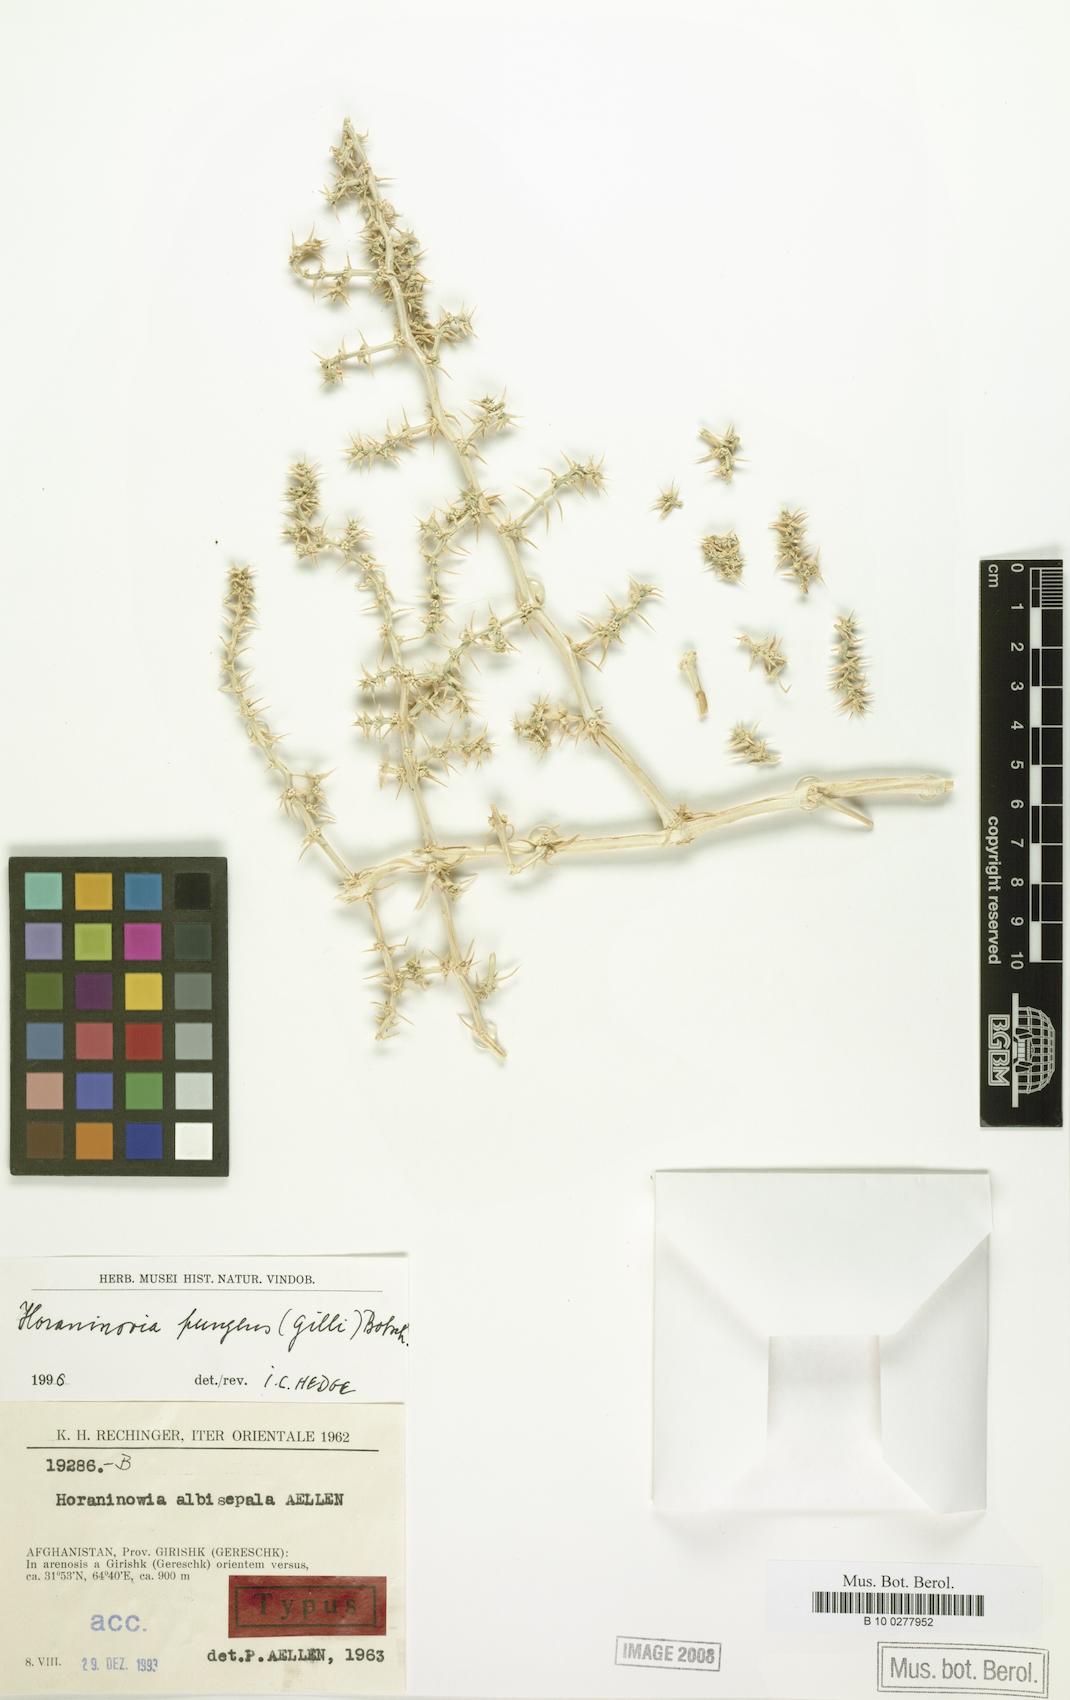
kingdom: Plantae
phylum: Tracheophyta
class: Magnoliopsida
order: Caryophyllales
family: Amaranthaceae
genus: Horaninovia
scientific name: Horaninovia pungens
